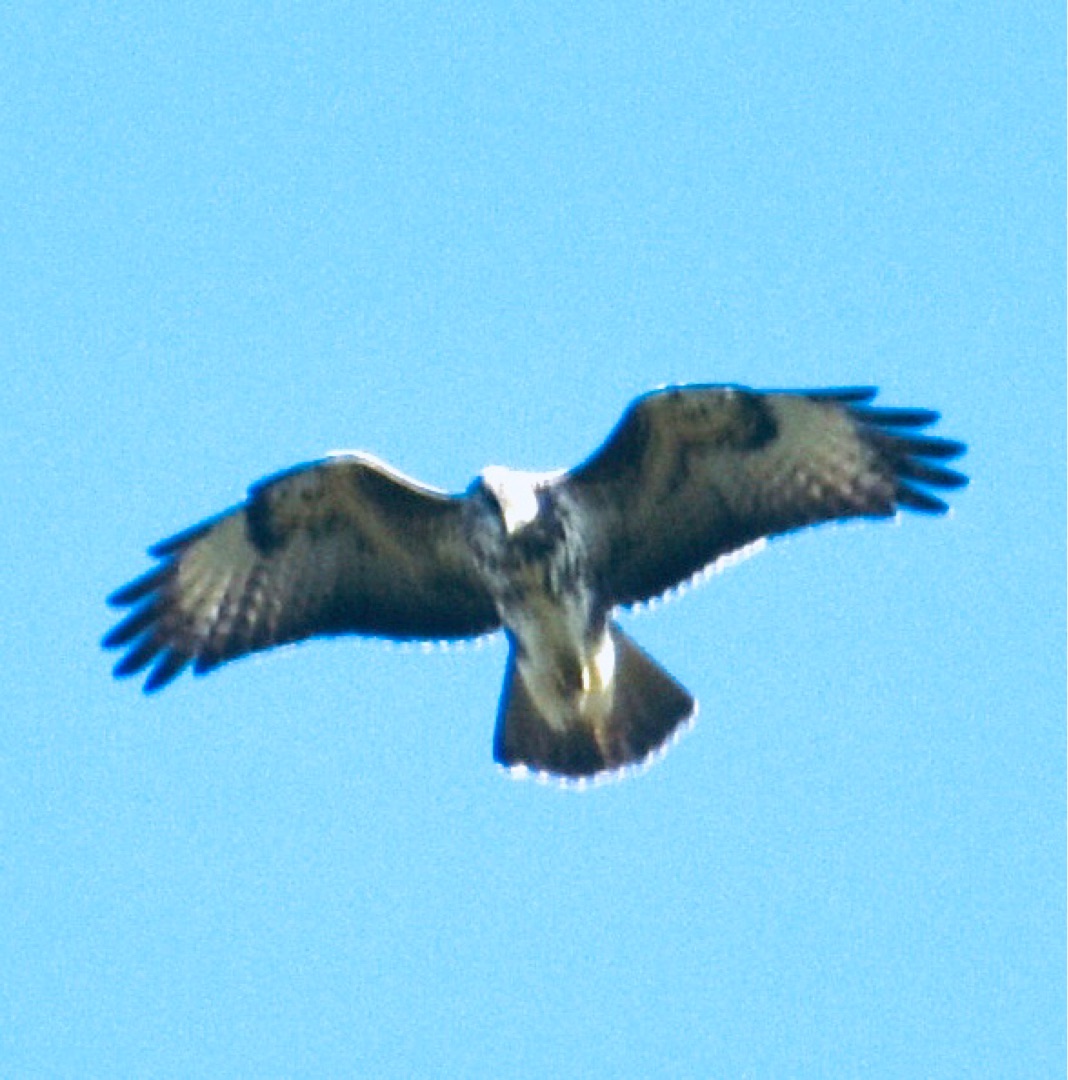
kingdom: Animalia
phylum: Chordata
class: Aves
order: Accipitriformes
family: Accipitridae
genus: Buteo
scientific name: Buteo buteo
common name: Musvåge
